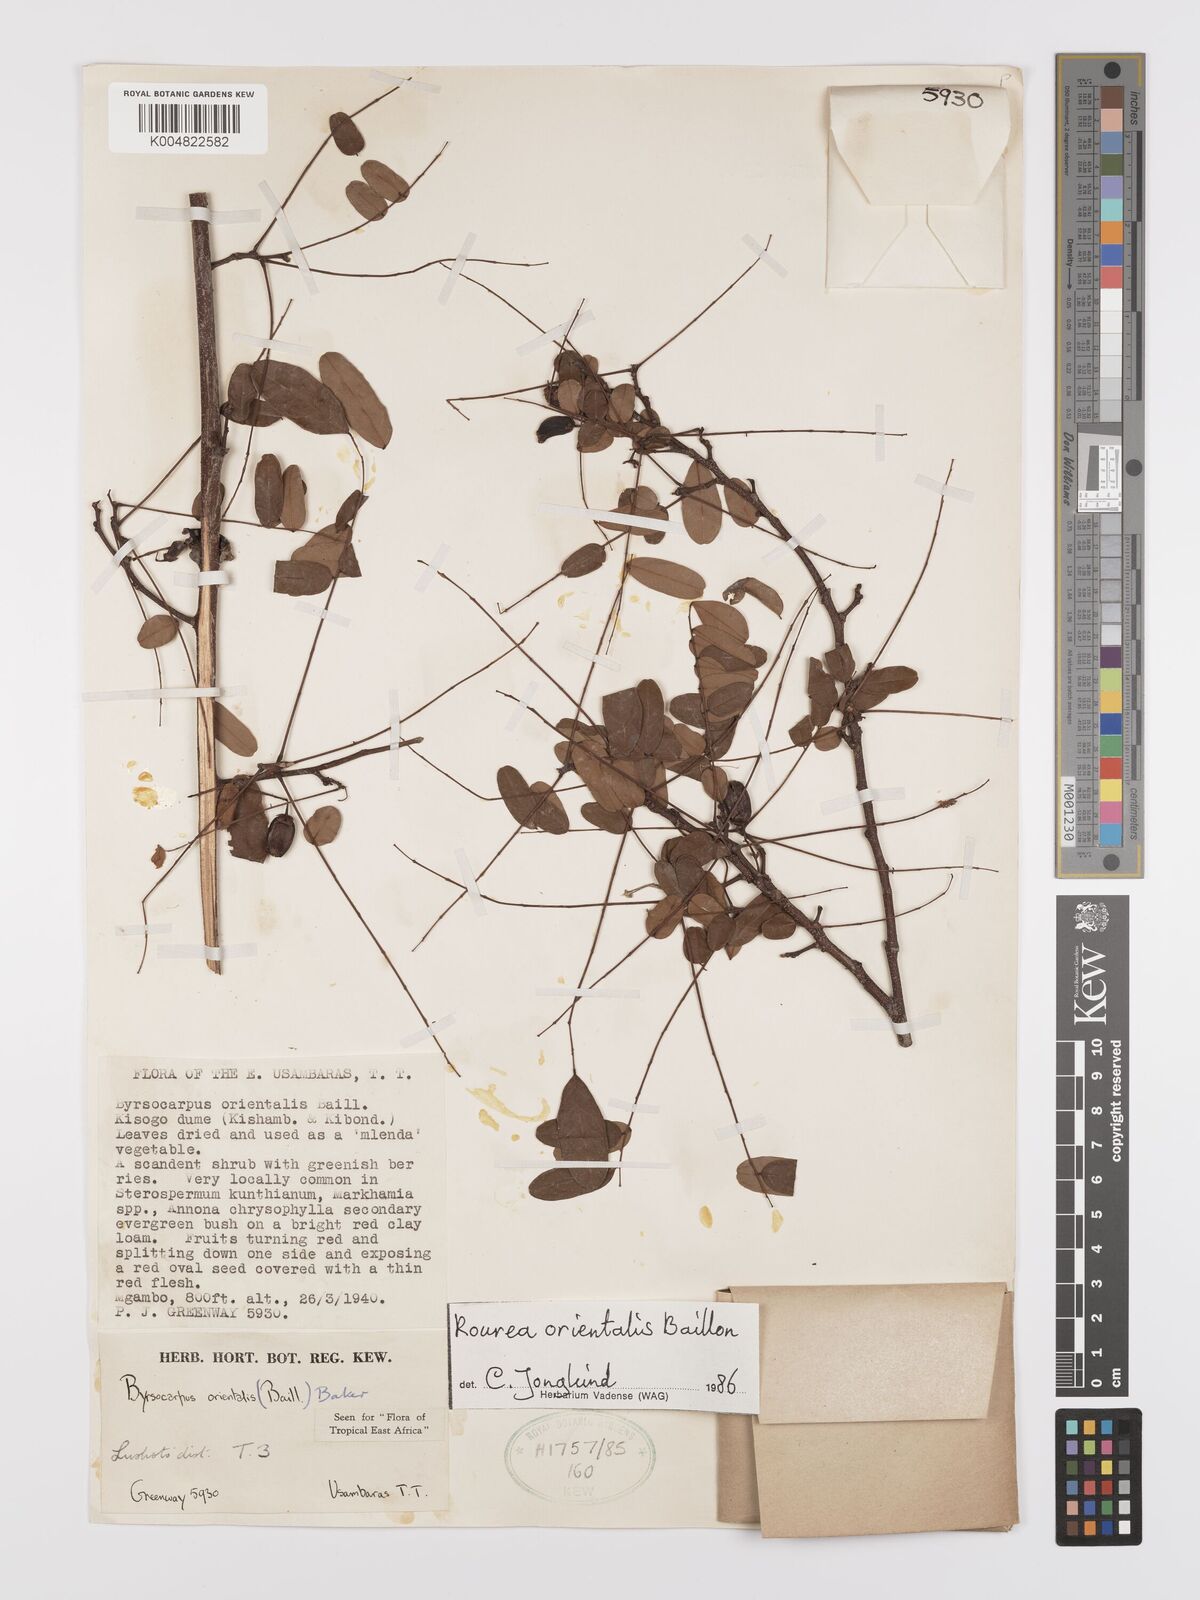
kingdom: Plantae
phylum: Tracheophyta
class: Magnoliopsida
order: Oxalidales
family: Connaraceae
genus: Rourea
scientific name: Rourea orientalis
